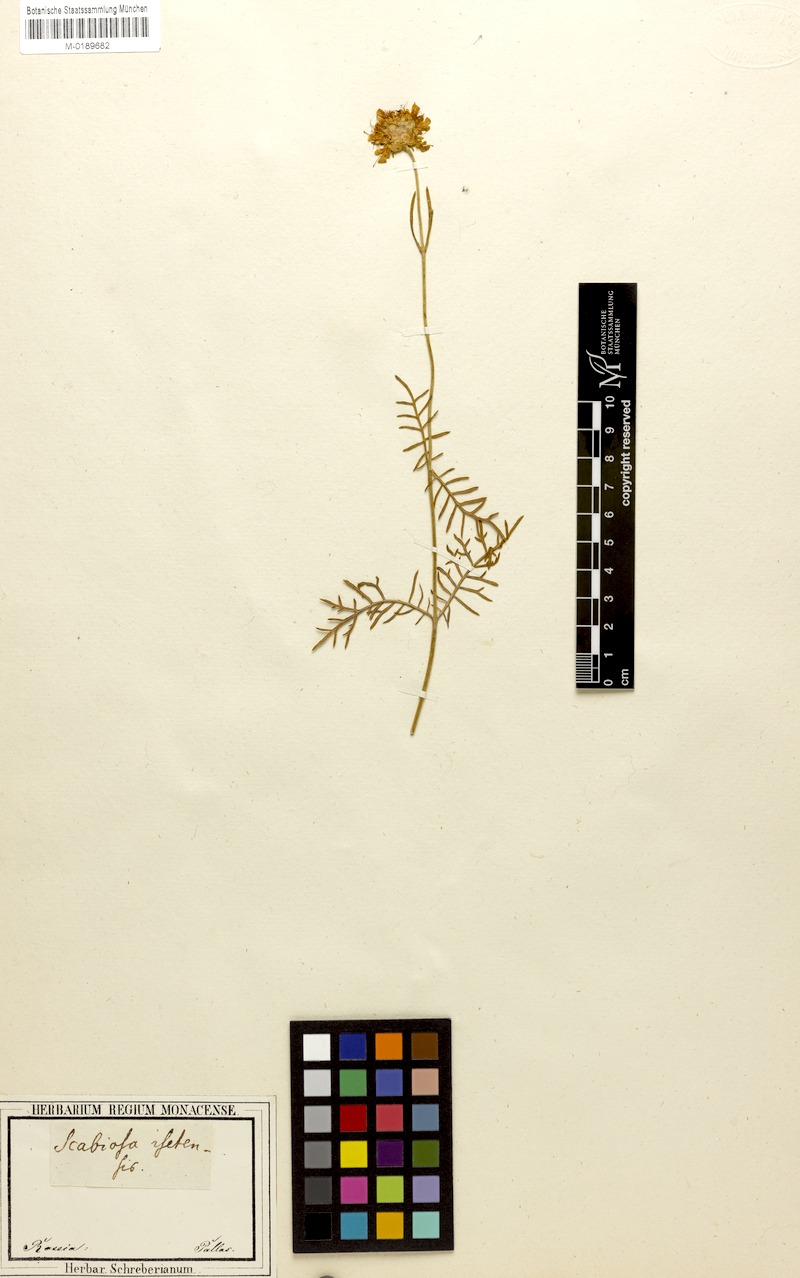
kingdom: Plantae
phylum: Tracheophyta
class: Magnoliopsida
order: Dipsacales
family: Caprifoliaceae
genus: Lomelosia
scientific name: Lomelosia isetensis
